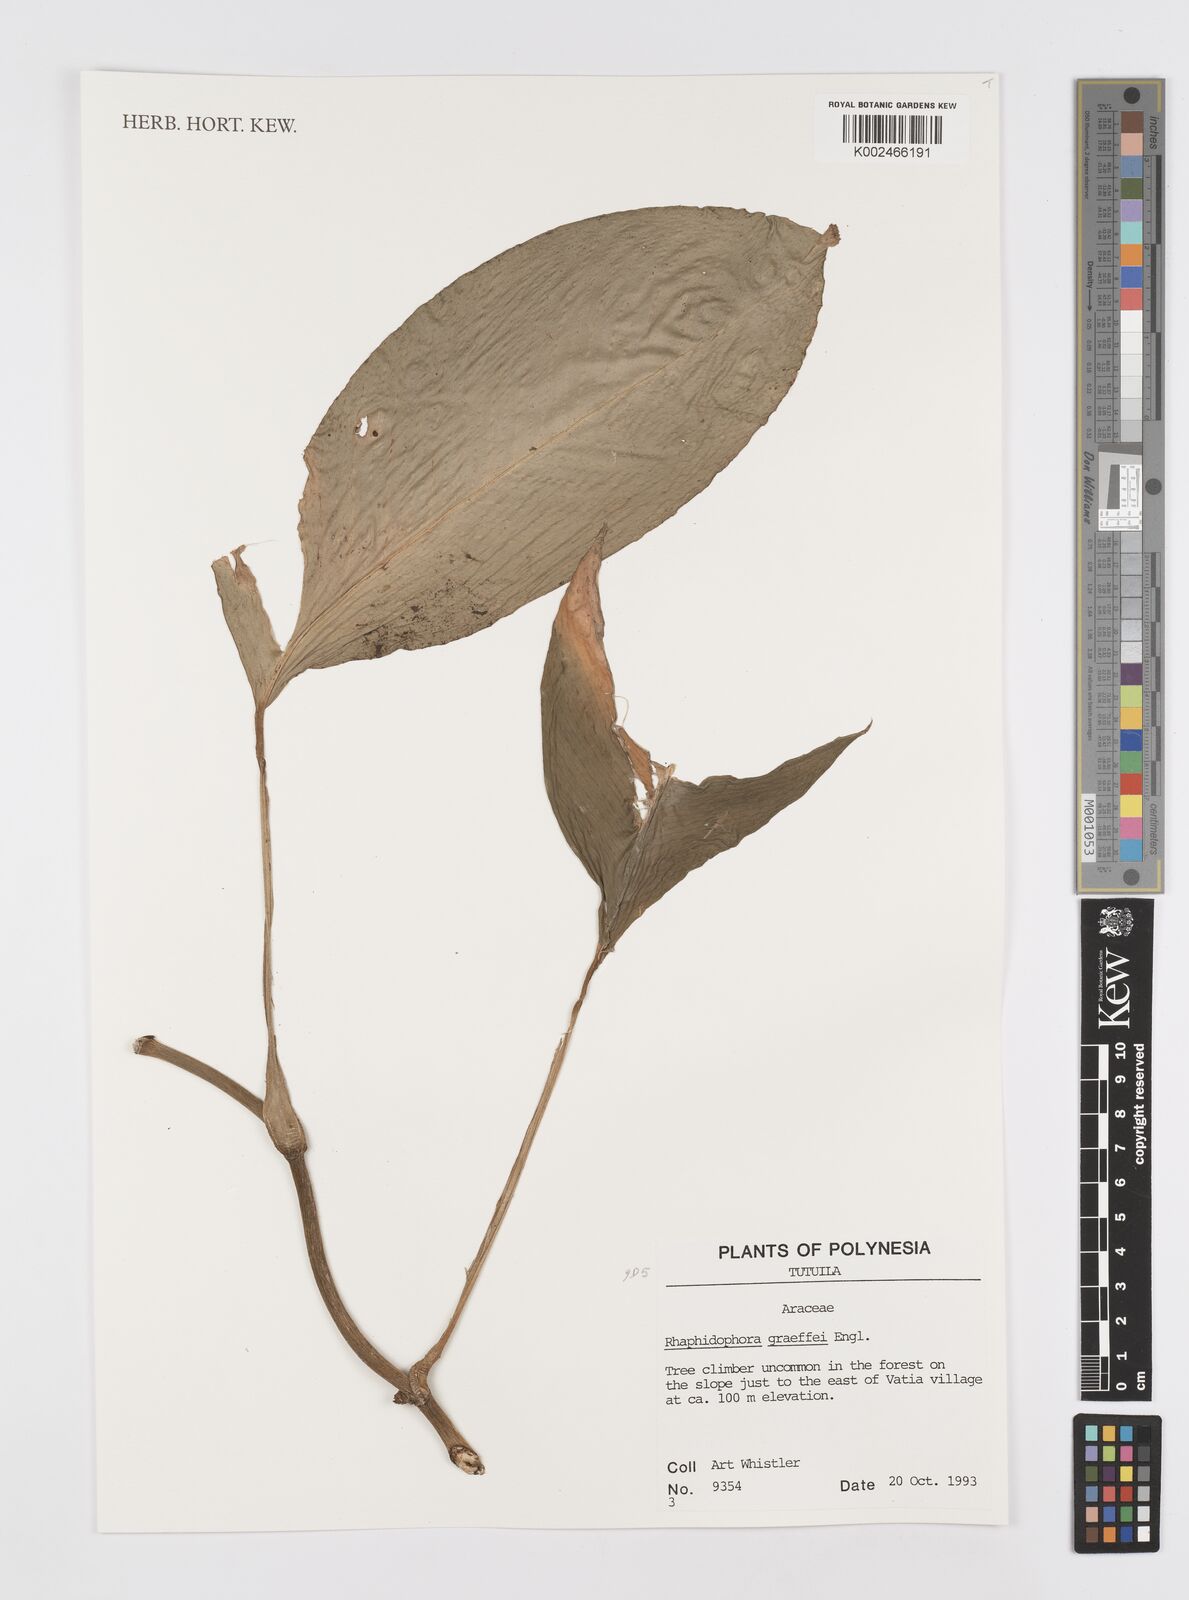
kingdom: Plantae
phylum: Tracheophyta
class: Liliopsida
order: Alismatales
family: Araceae
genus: Rhaphidophora
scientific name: Rhaphidophora spuria
